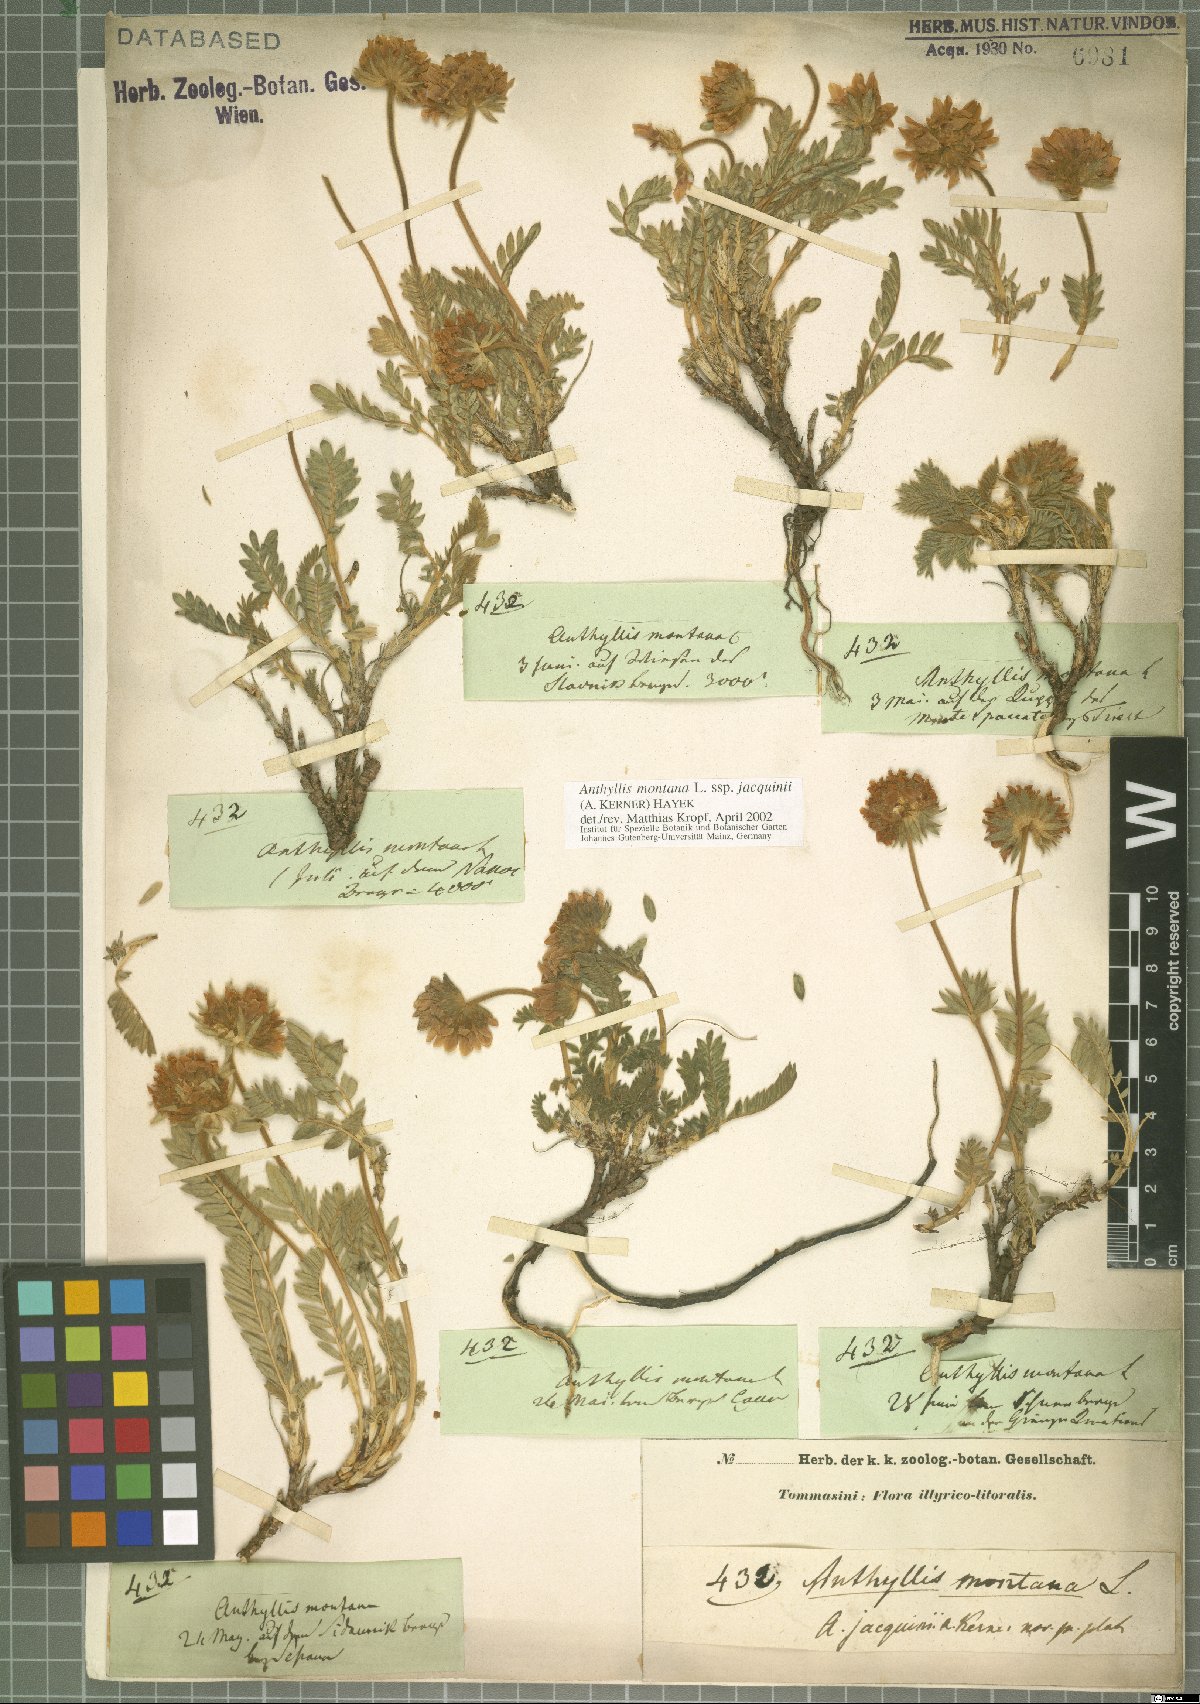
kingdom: Plantae
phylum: Tracheophyta
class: Magnoliopsida
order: Fabales
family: Fabaceae
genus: Anthyllis
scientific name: Anthyllis montana
